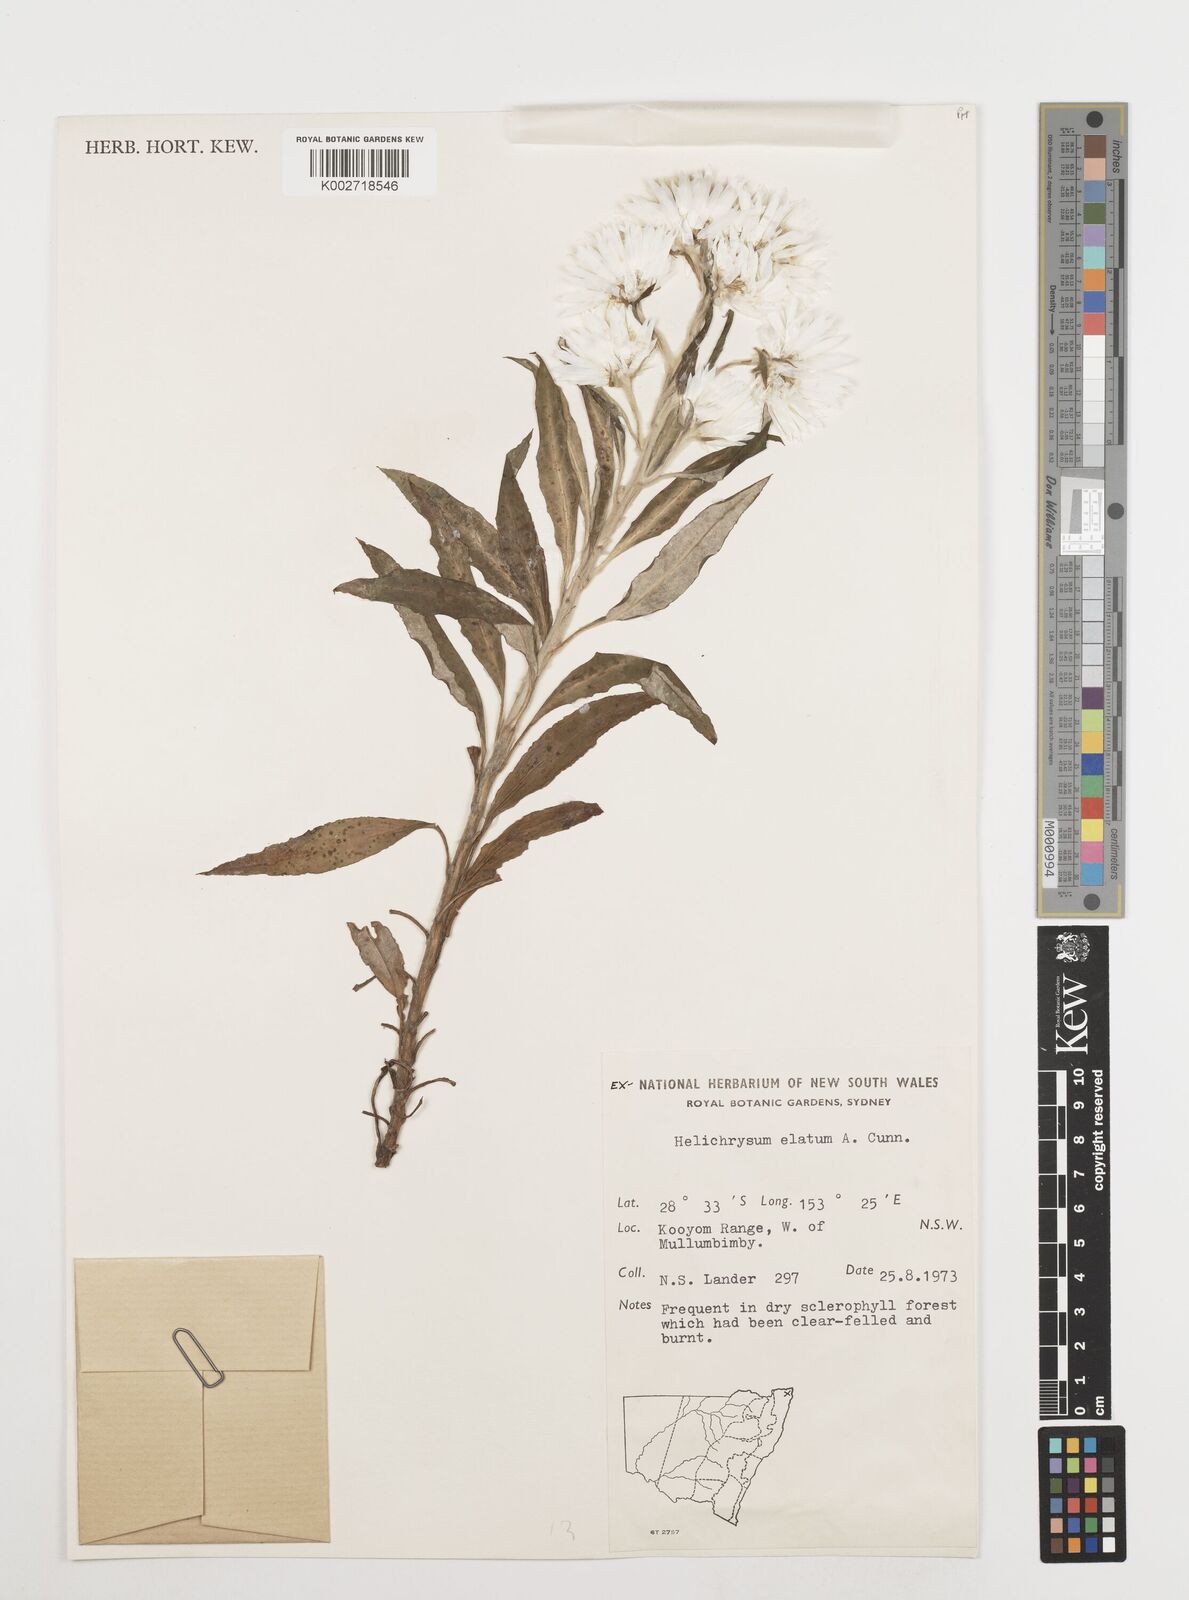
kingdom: Plantae
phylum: Tracheophyta
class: Magnoliopsida
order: Asterales
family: Asteraceae
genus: Leucozoma
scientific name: Leucozoma elatum
